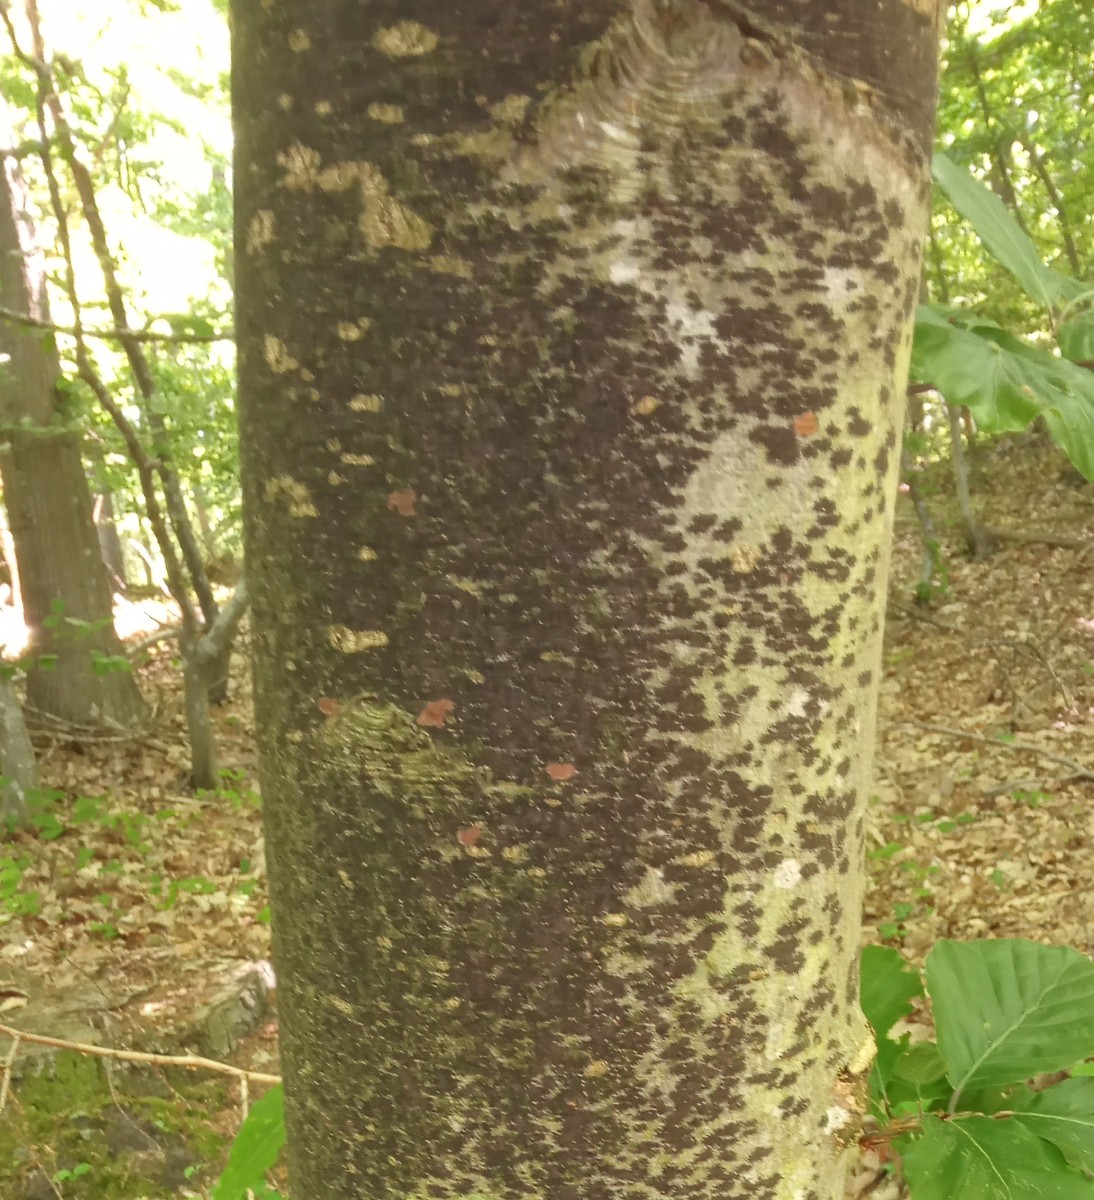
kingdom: Fungi
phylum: Ascomycota
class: Leotiomycetes
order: Rhytismatales
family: Ascodichaenaceae
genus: Ascodichaena
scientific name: Ascodichaena rugosa
